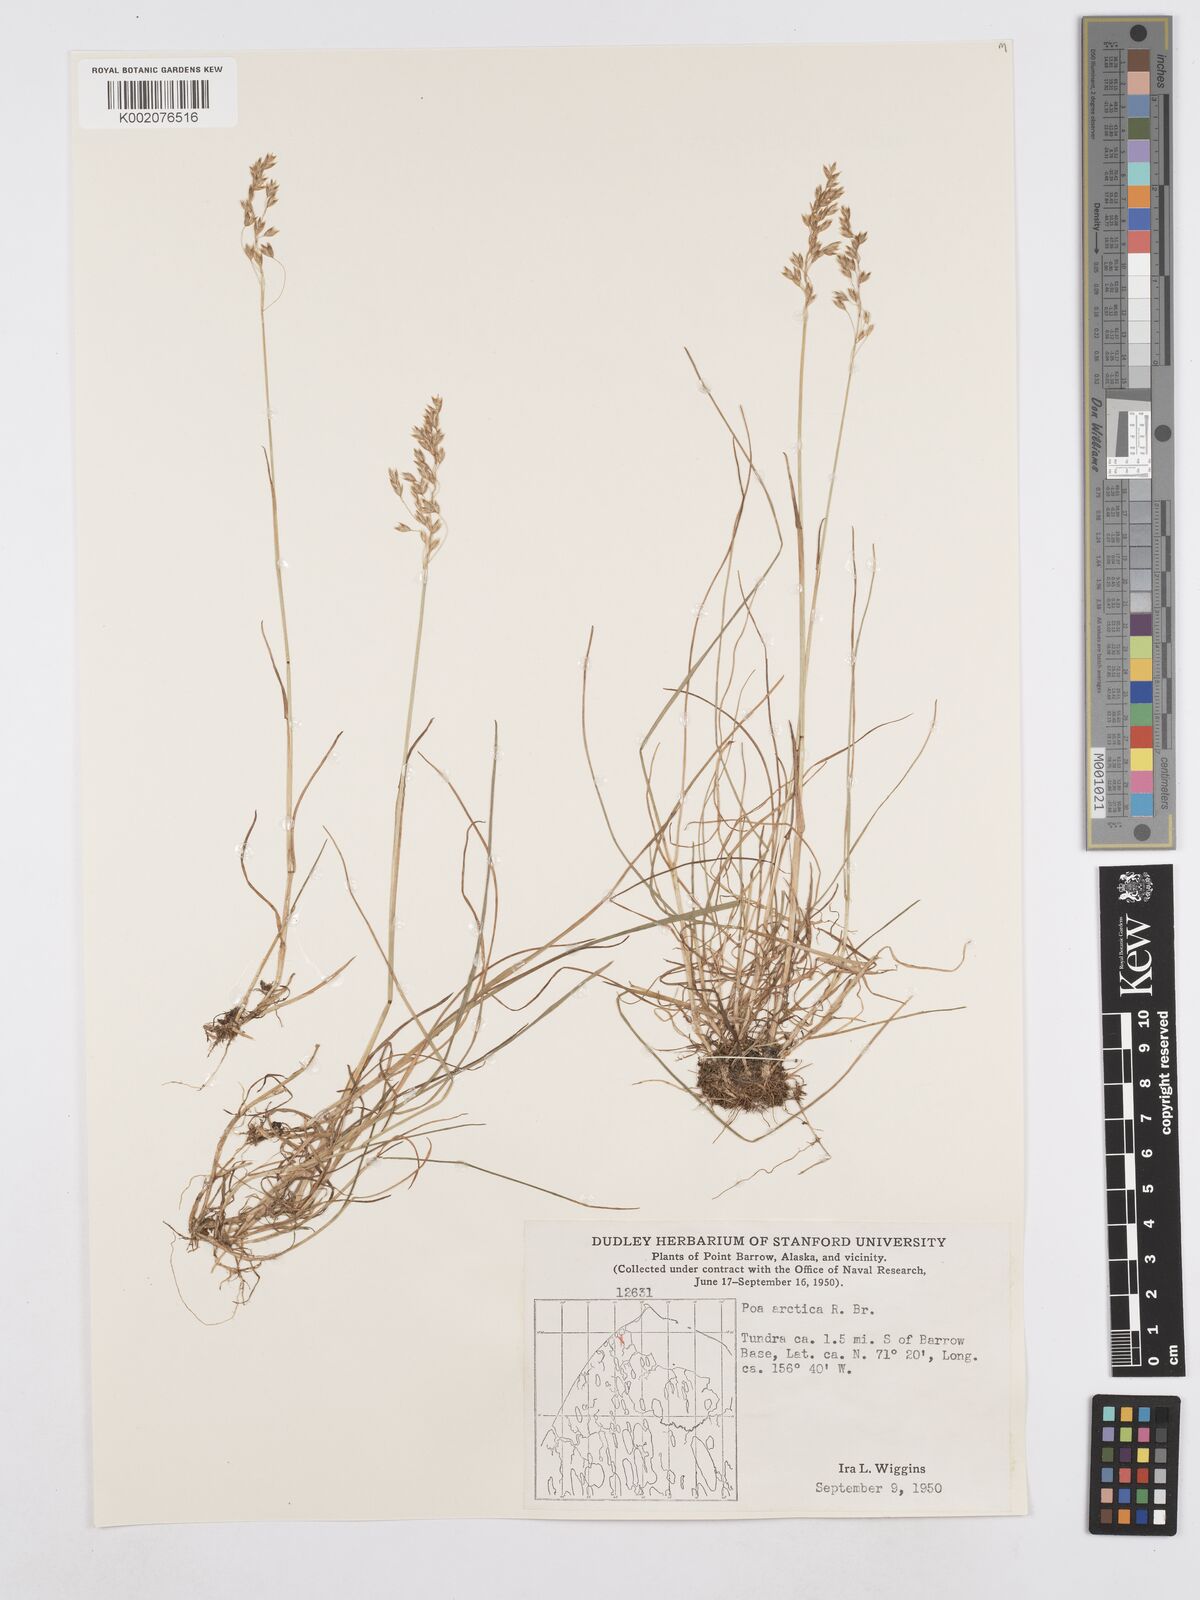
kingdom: Plantae
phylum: Tracheophyta
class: Liliopsida
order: Poales
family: Poaceae
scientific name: Poaceae
